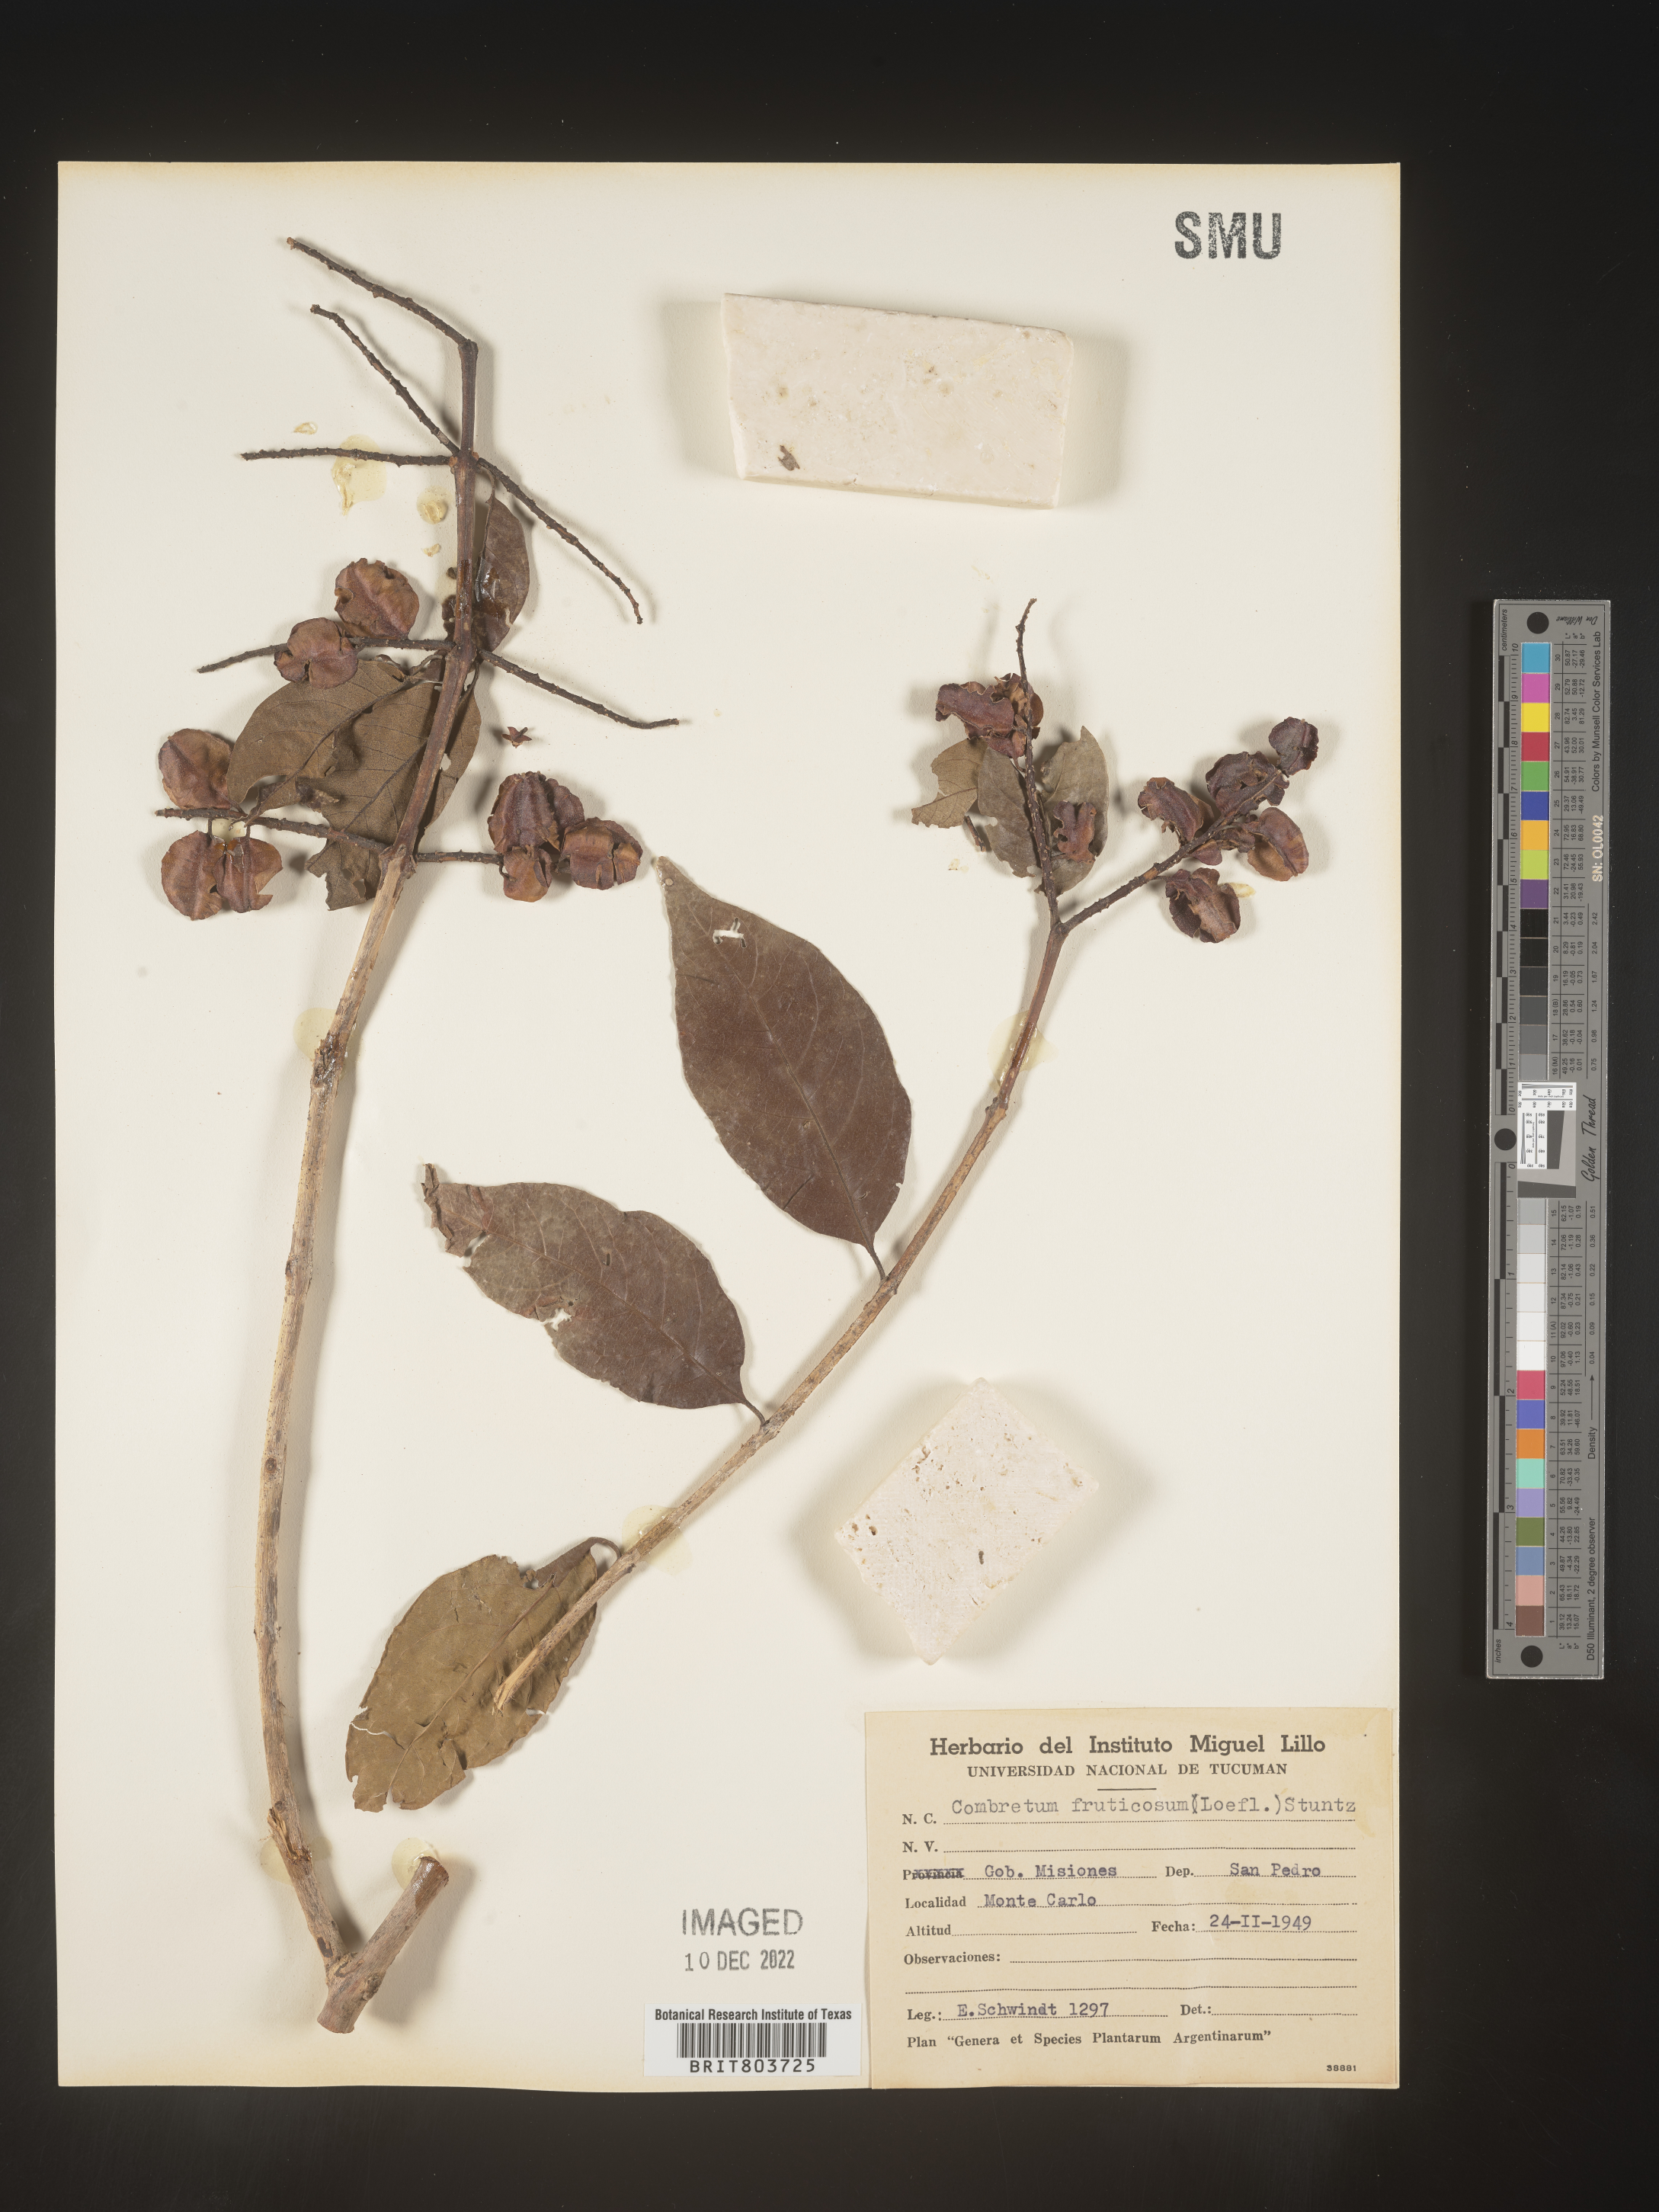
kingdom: Plantae
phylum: Tracheophyta
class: Magnoliopsida
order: Myrtales
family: Combretaceae
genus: Combretum
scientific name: Combretum
